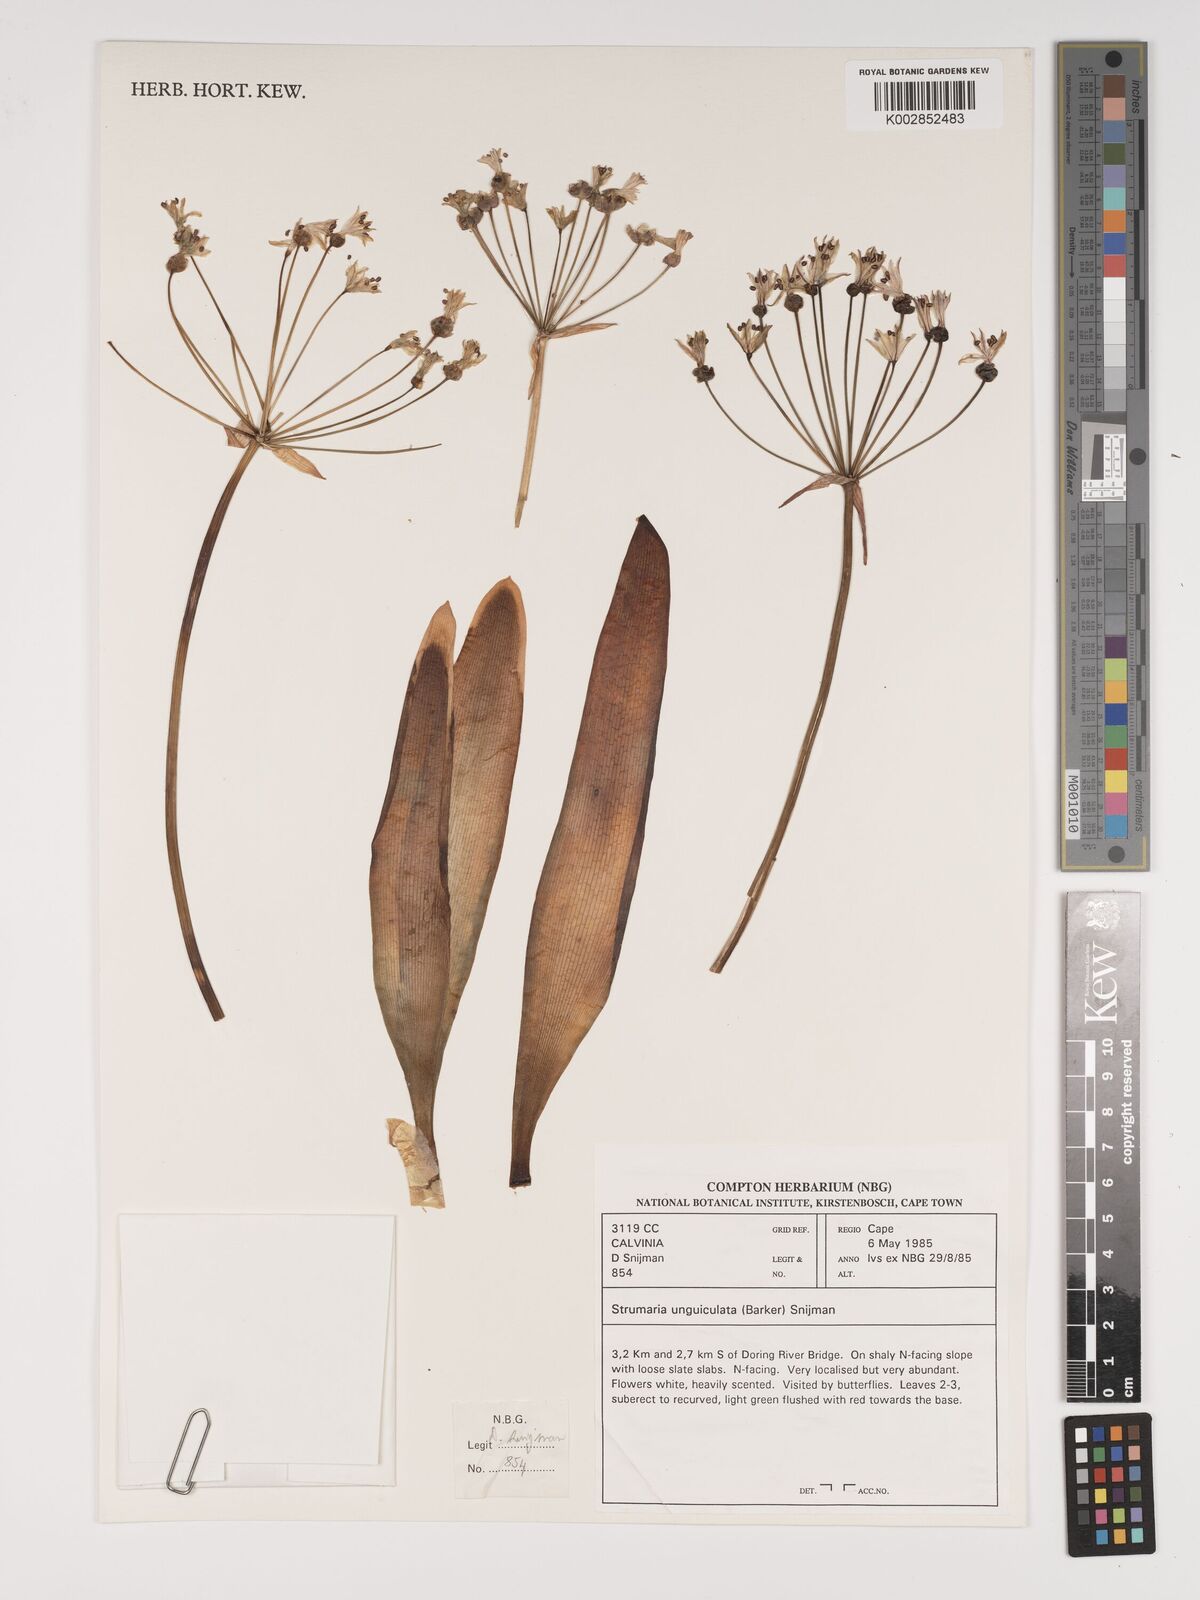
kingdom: Plantae
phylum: Tracheophyta
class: Liliopsida
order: Asparagales
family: Amaryllidaceae
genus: Strumaria
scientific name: Strumaria unguiculata
